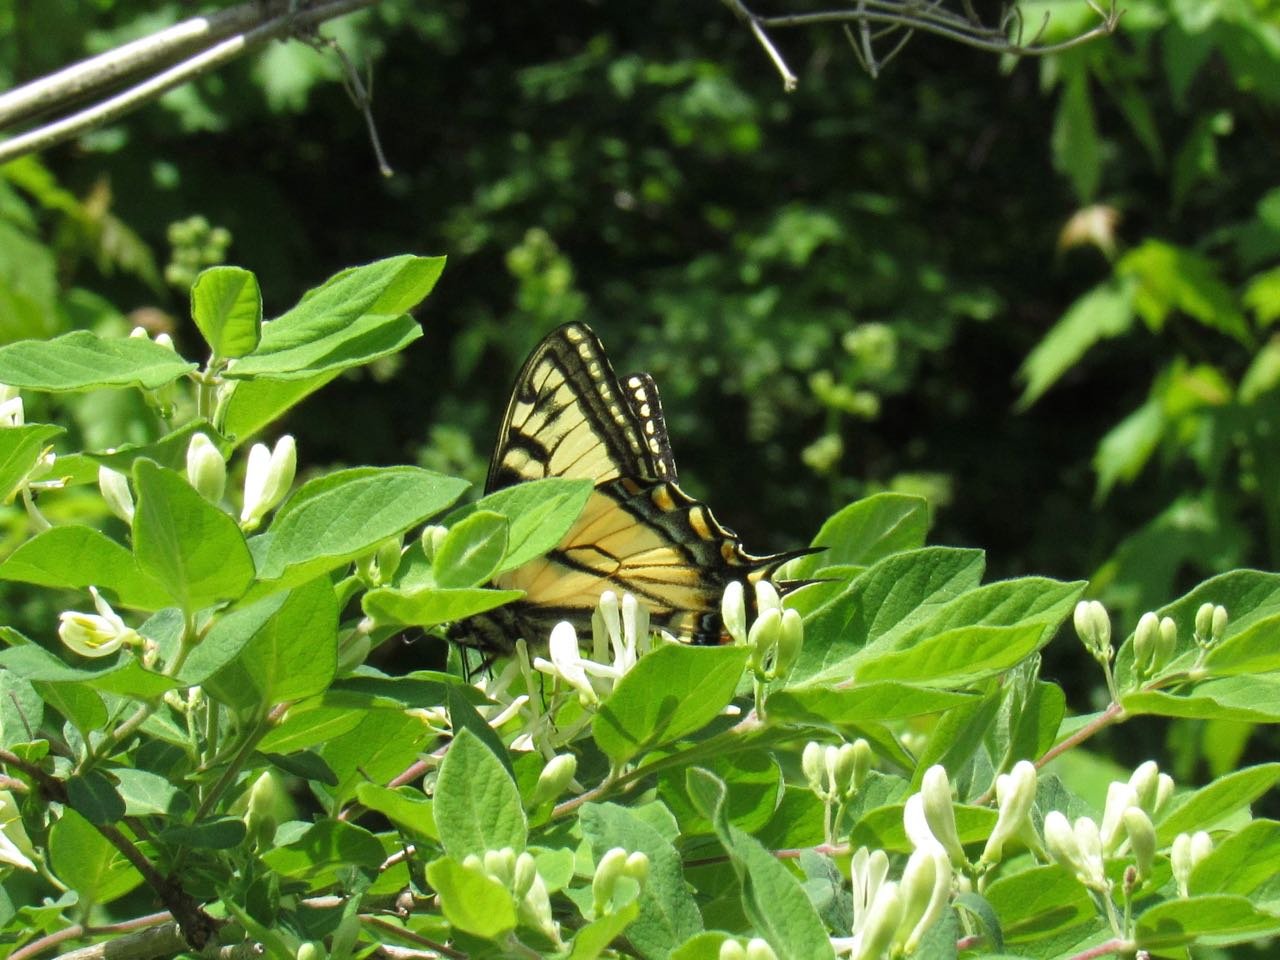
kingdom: Animalia
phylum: Arthropoda
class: Insecta
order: Lepidoptera
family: Papilionidae
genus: Pterourus
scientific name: Pterourus canadensis
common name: Canadian Tiger Swallowtail
